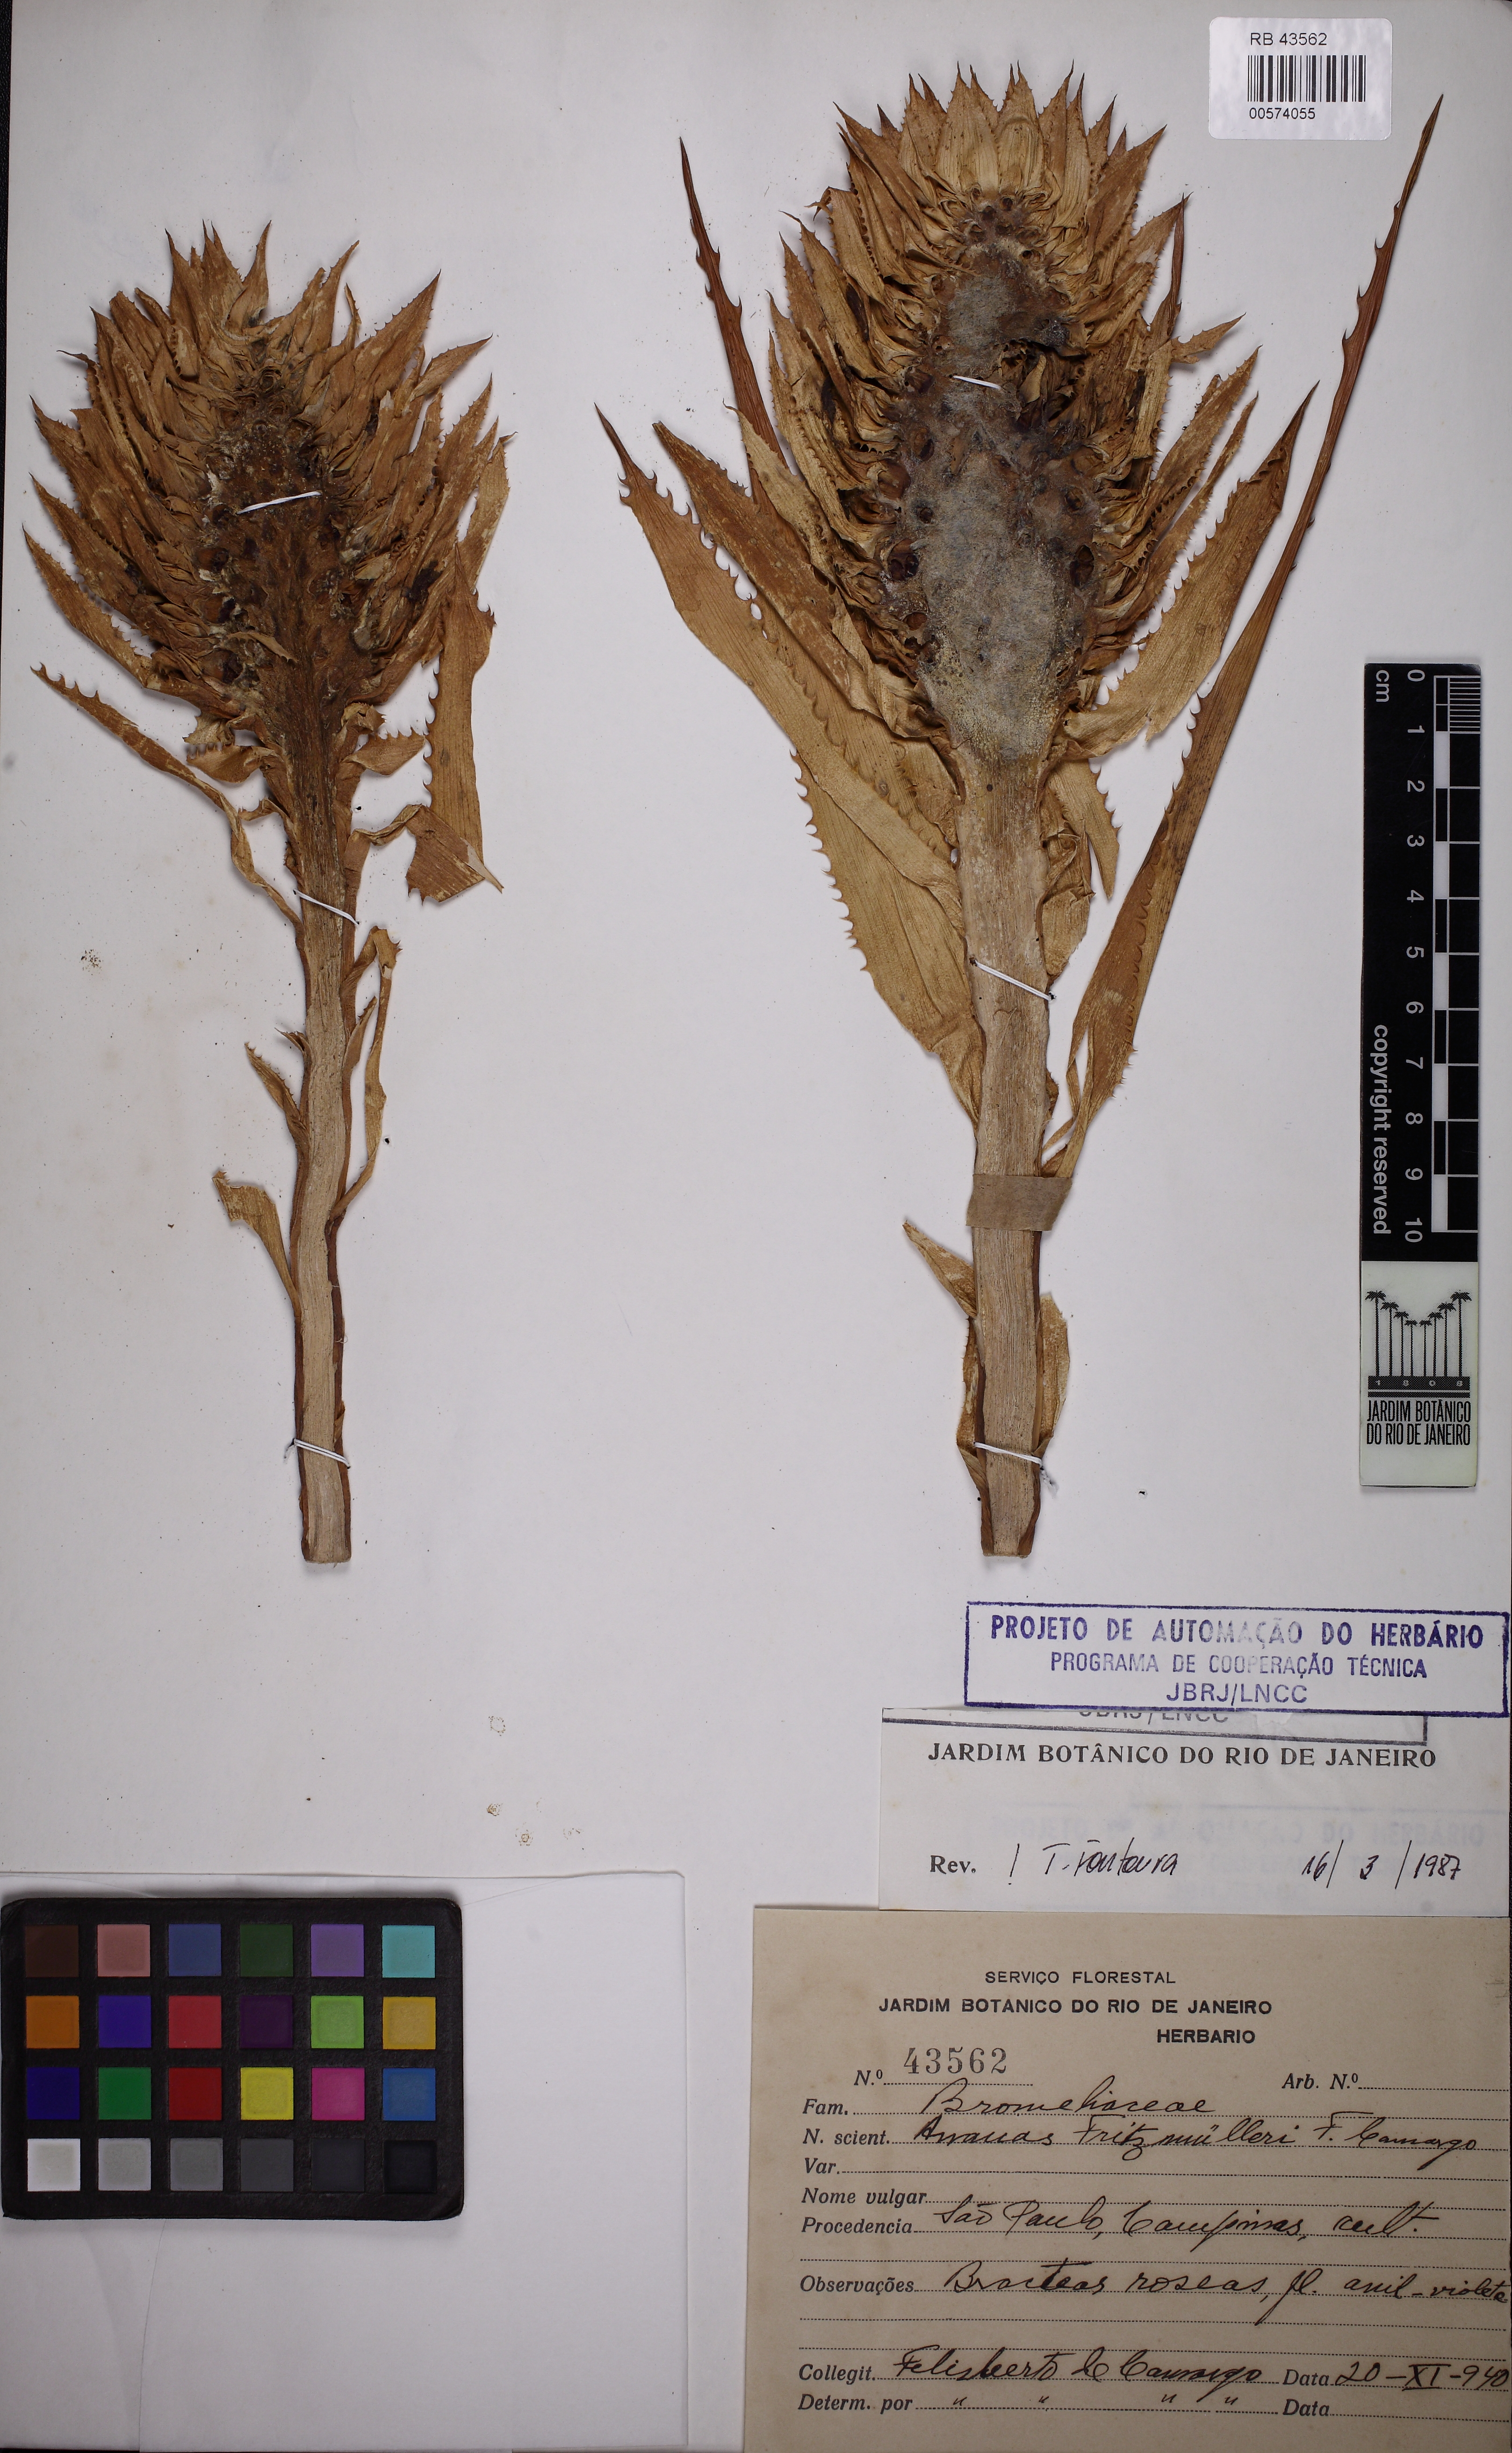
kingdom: Plantae
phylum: Tracheophyta
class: Liliopsida
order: Poales
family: Bromeliaceae
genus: Ananas
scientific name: Ananas comosus
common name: Pineapple
